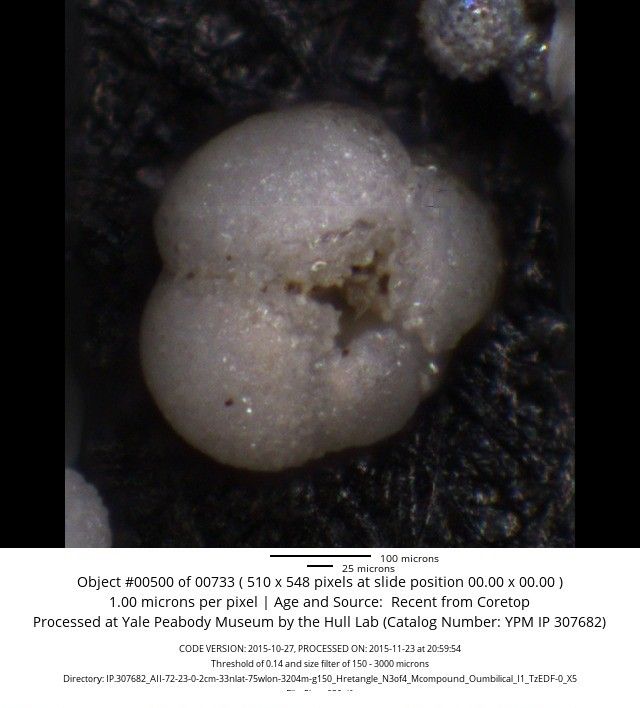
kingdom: Chromista
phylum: Foraminifera
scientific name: Foraminifera
